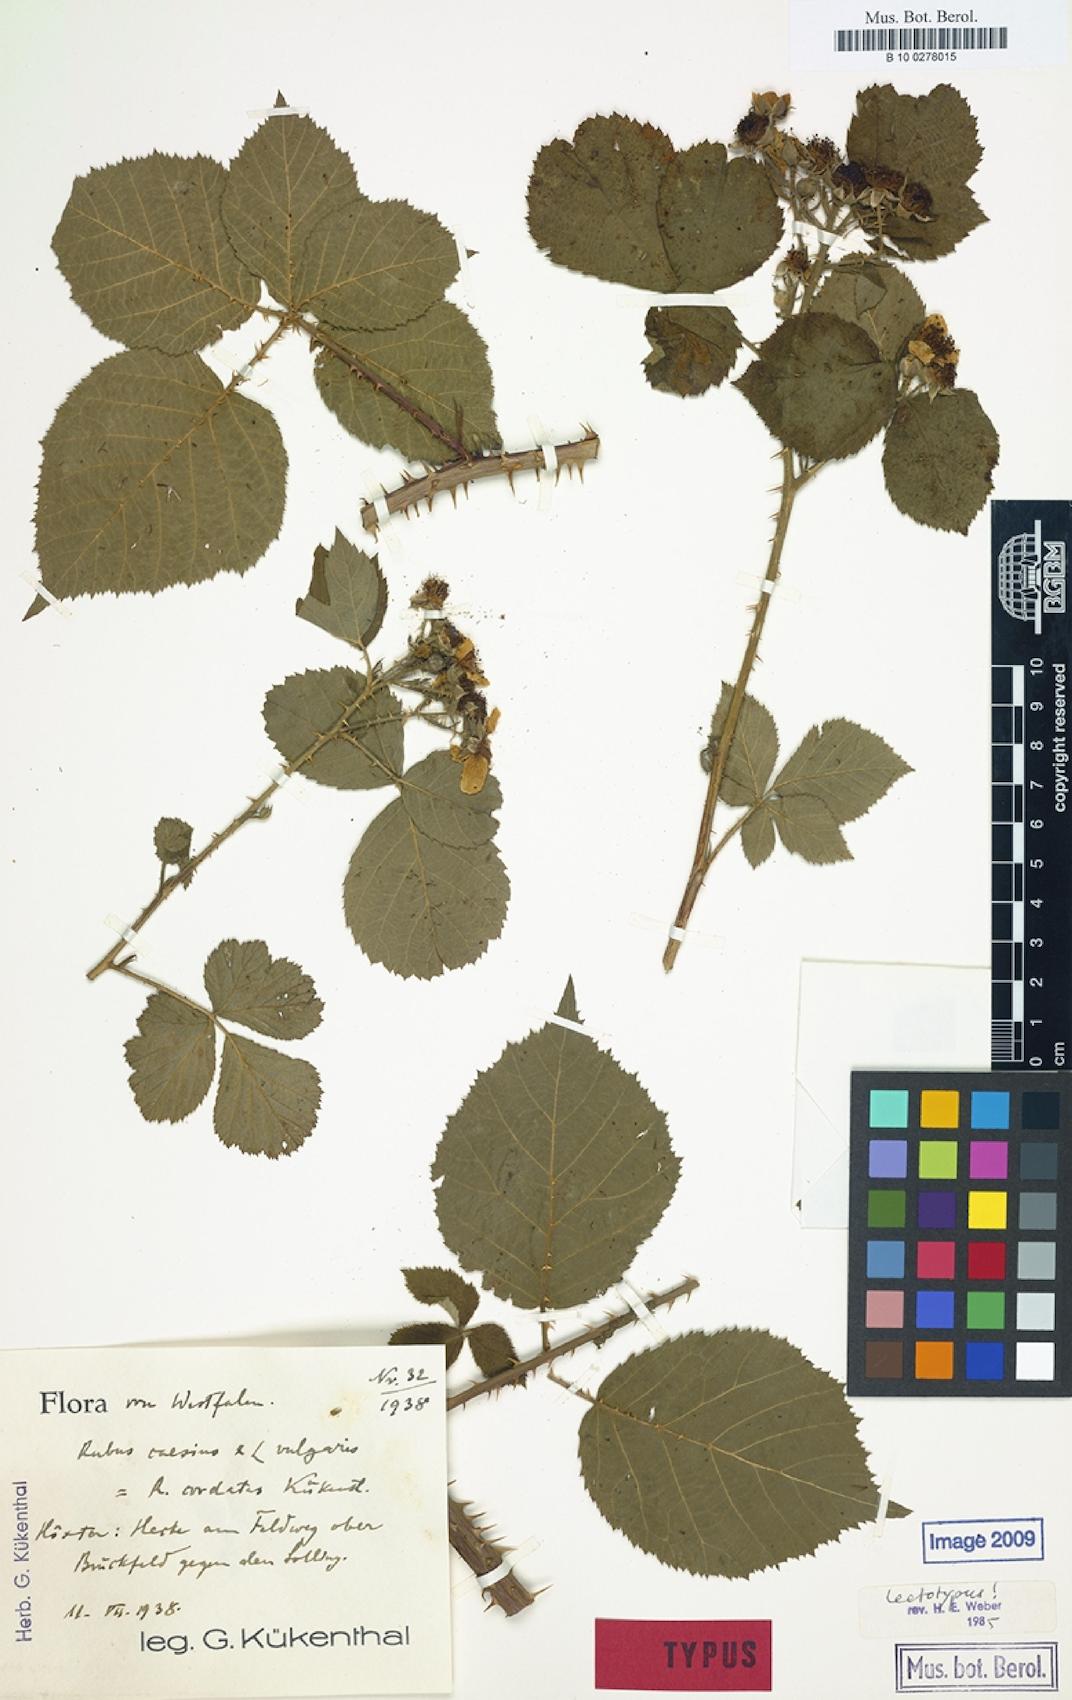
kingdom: Plantae
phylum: Tracheophyta
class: Magnoliopsida
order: Rosales
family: Rosaceae
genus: Rubus
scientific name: Rubus cordatus
